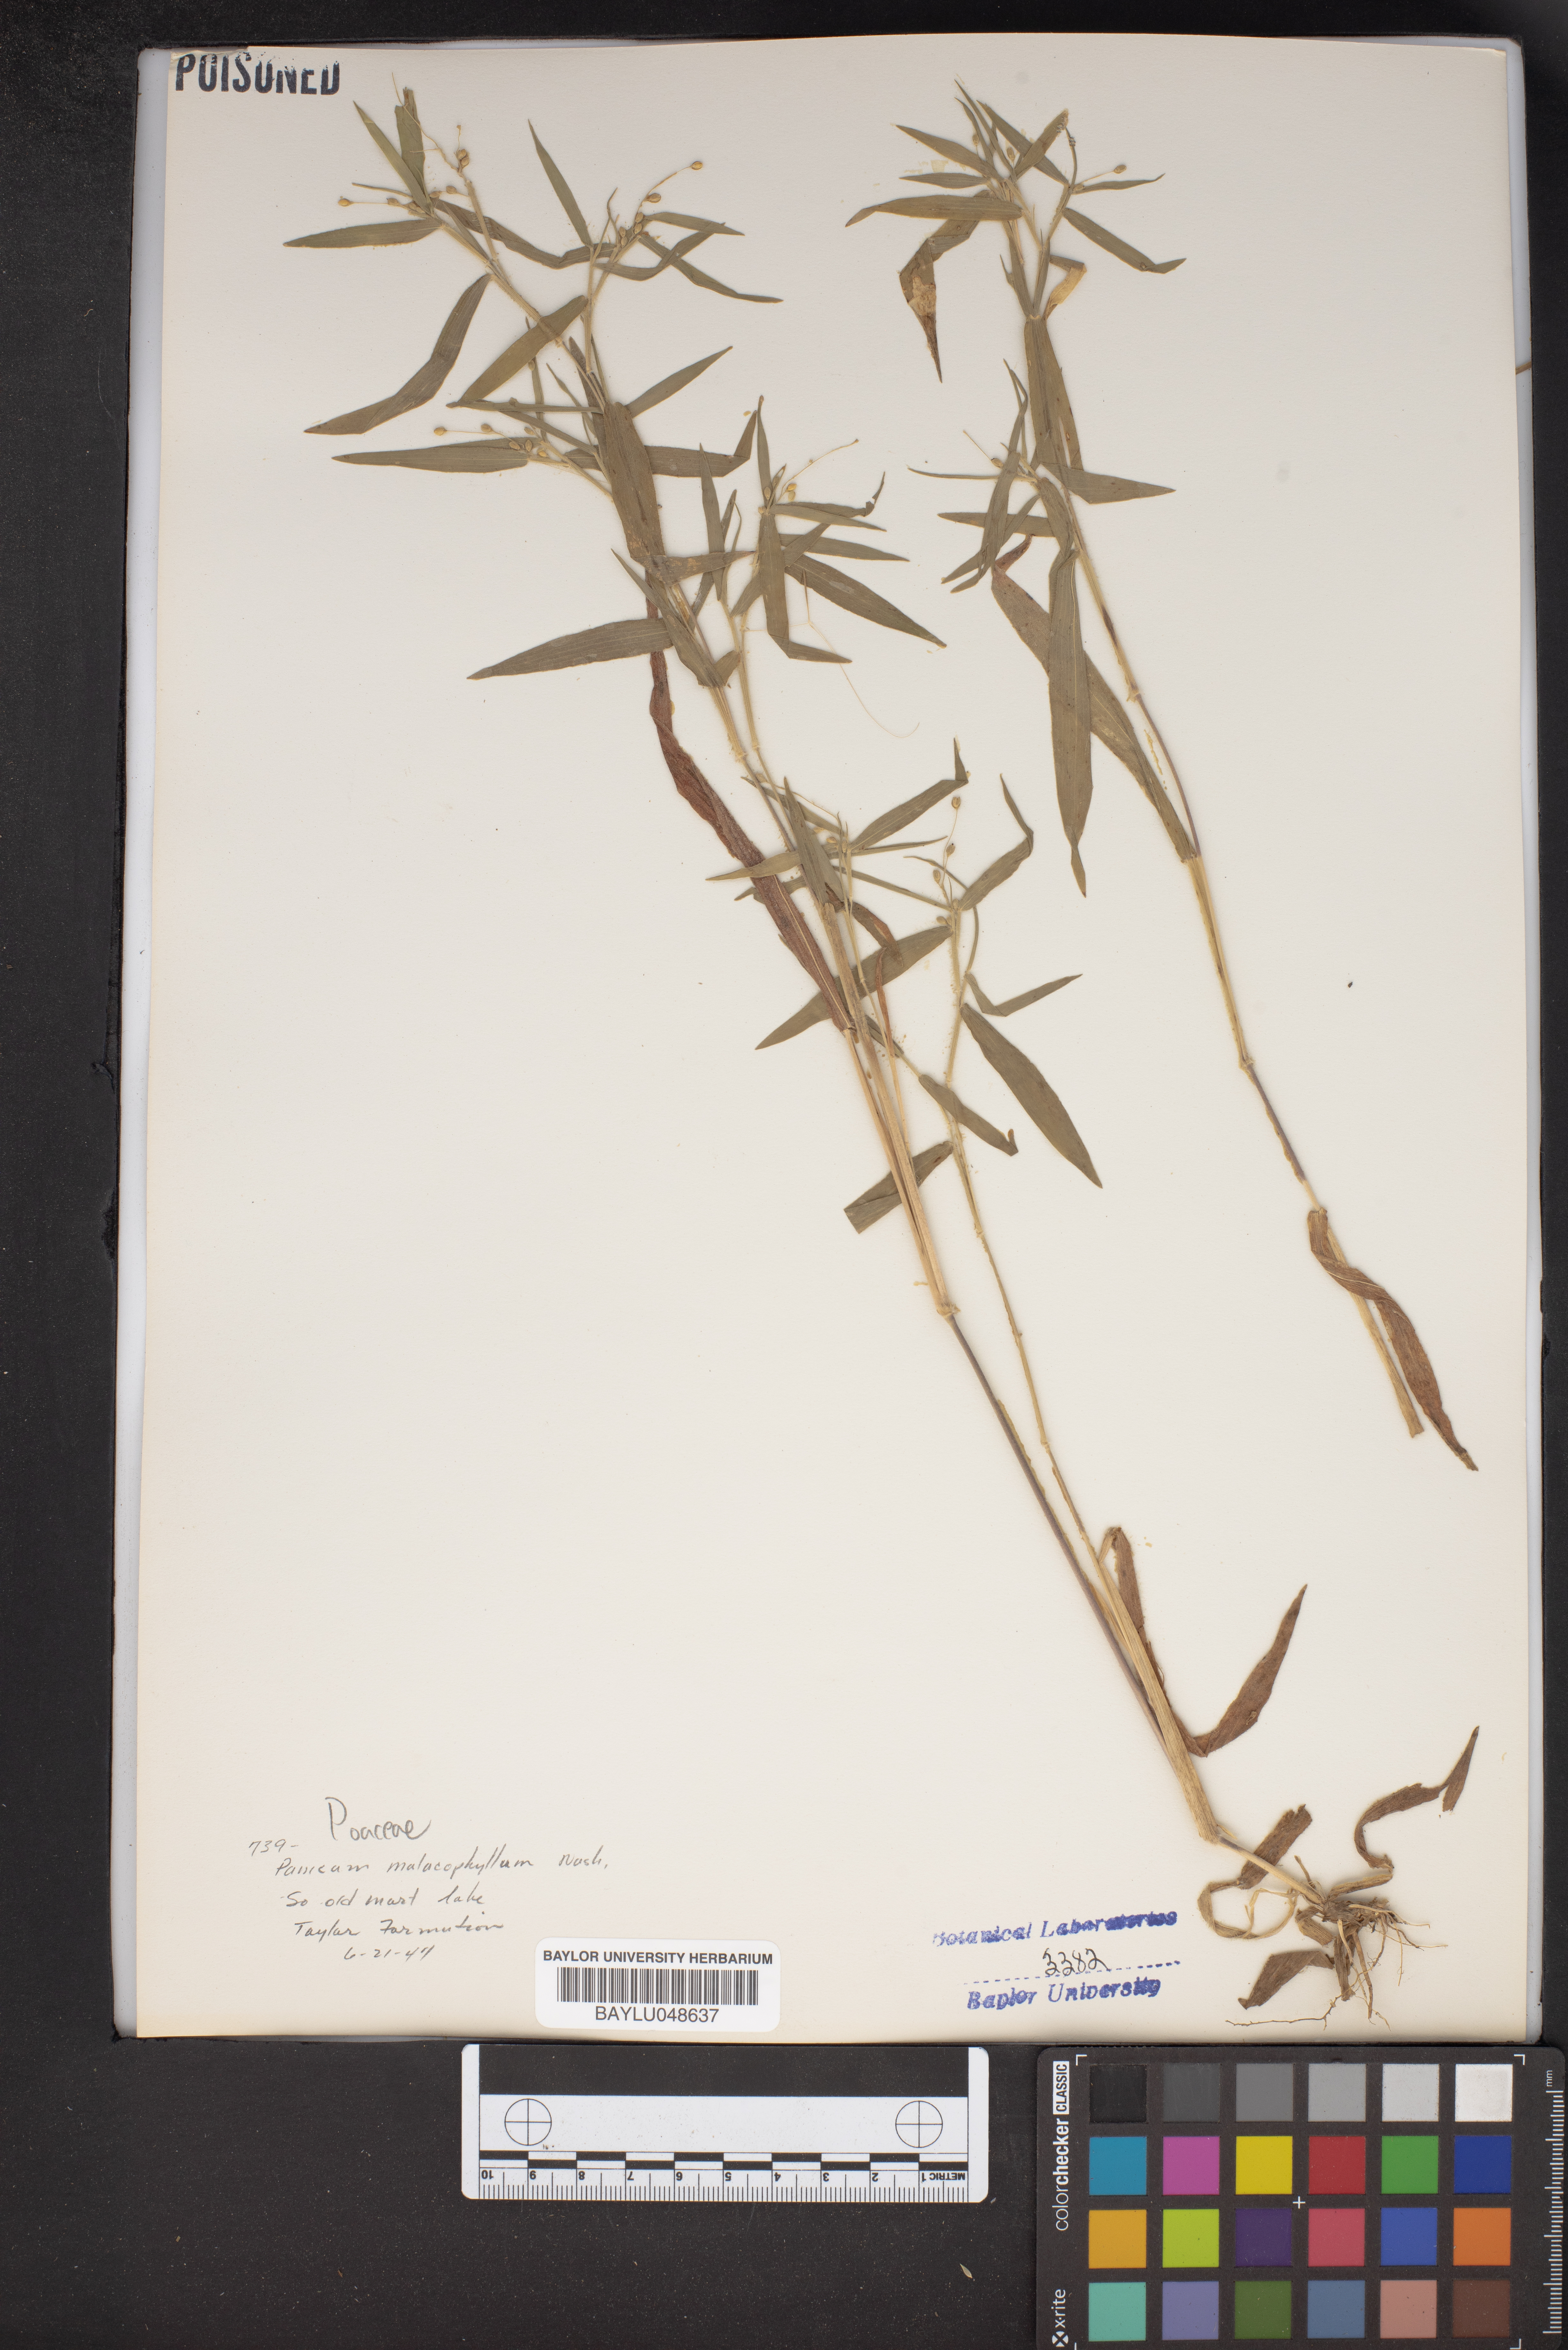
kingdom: Plantae
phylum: Tracheophyta
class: Liliopsida
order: Poales
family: Poaceae
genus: Dichanthelium
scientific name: Dichanthelium malacophyllum
